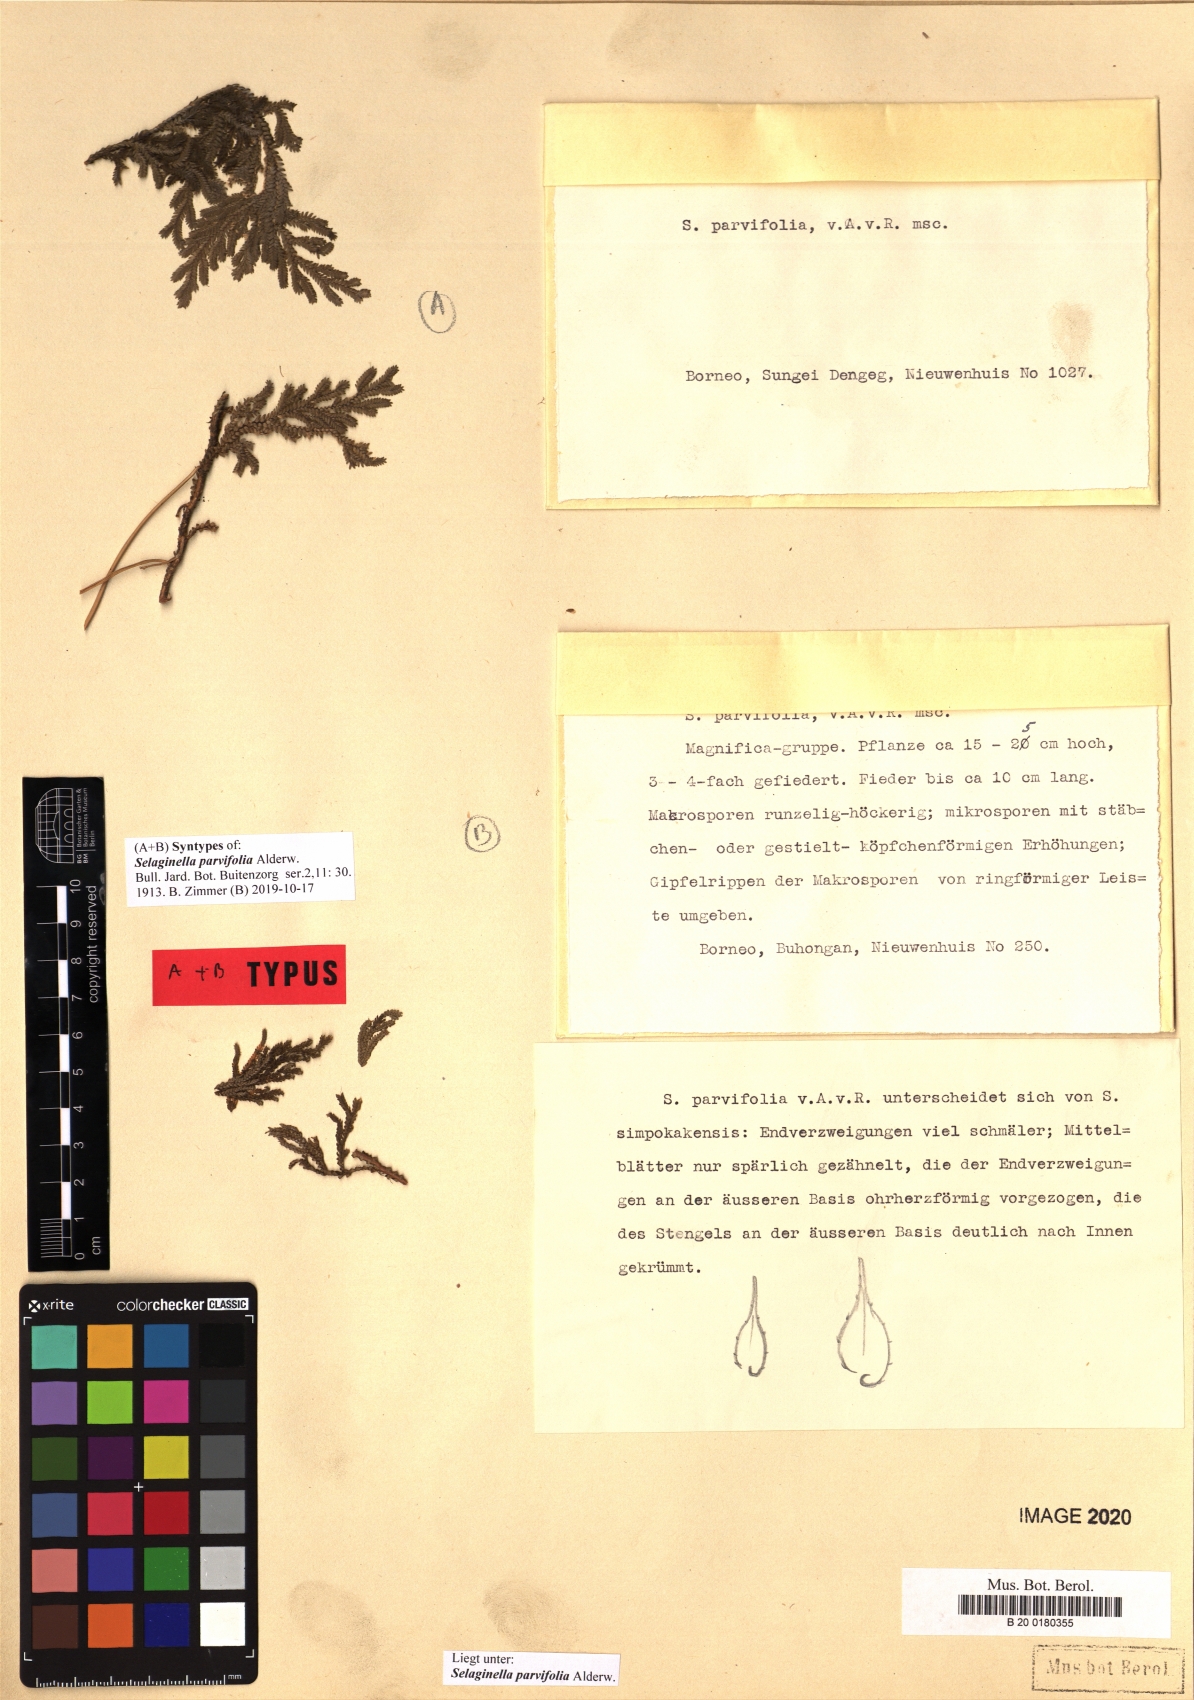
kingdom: Plantae
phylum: Tracheophyta
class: Lycopodiopsida
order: Selaginellales
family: Selaginellaceae
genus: Selaginella
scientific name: Selaginella parvifolia
